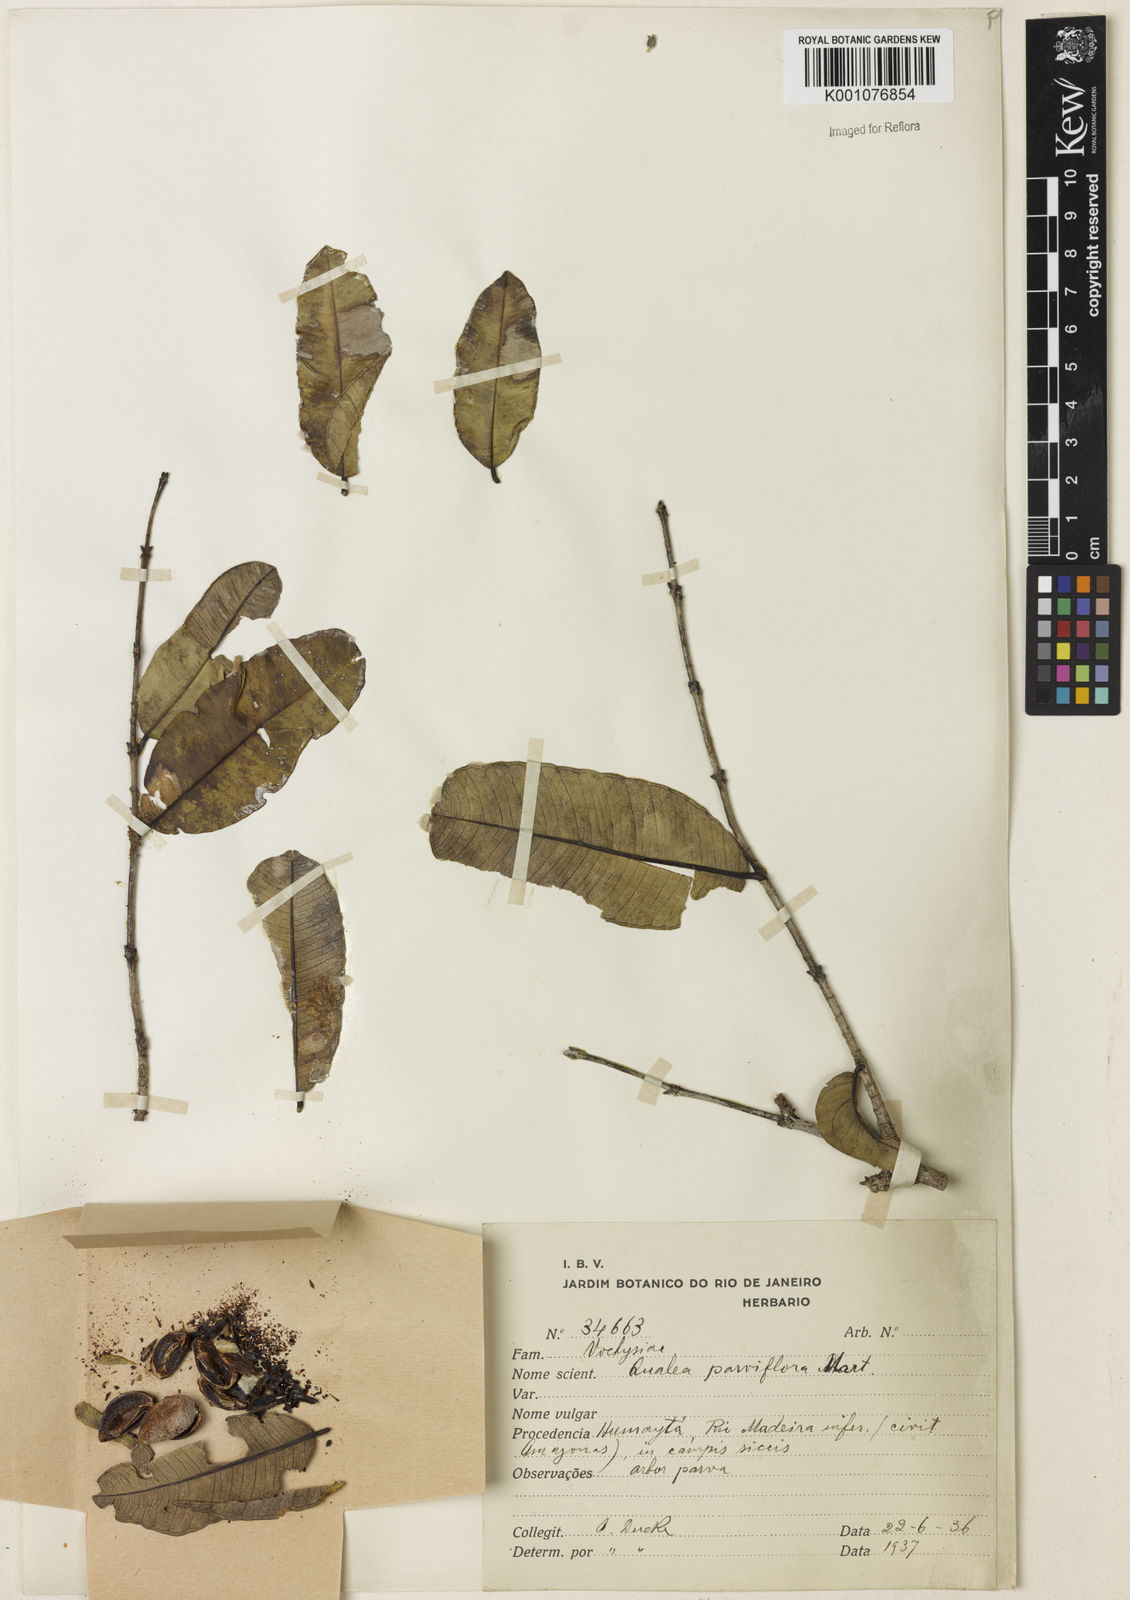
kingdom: Plantae
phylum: Tracheophyta
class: Magnoliopsida
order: Myrtales
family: Vochysiaceae
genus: Qualea
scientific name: Qualea parviflora
